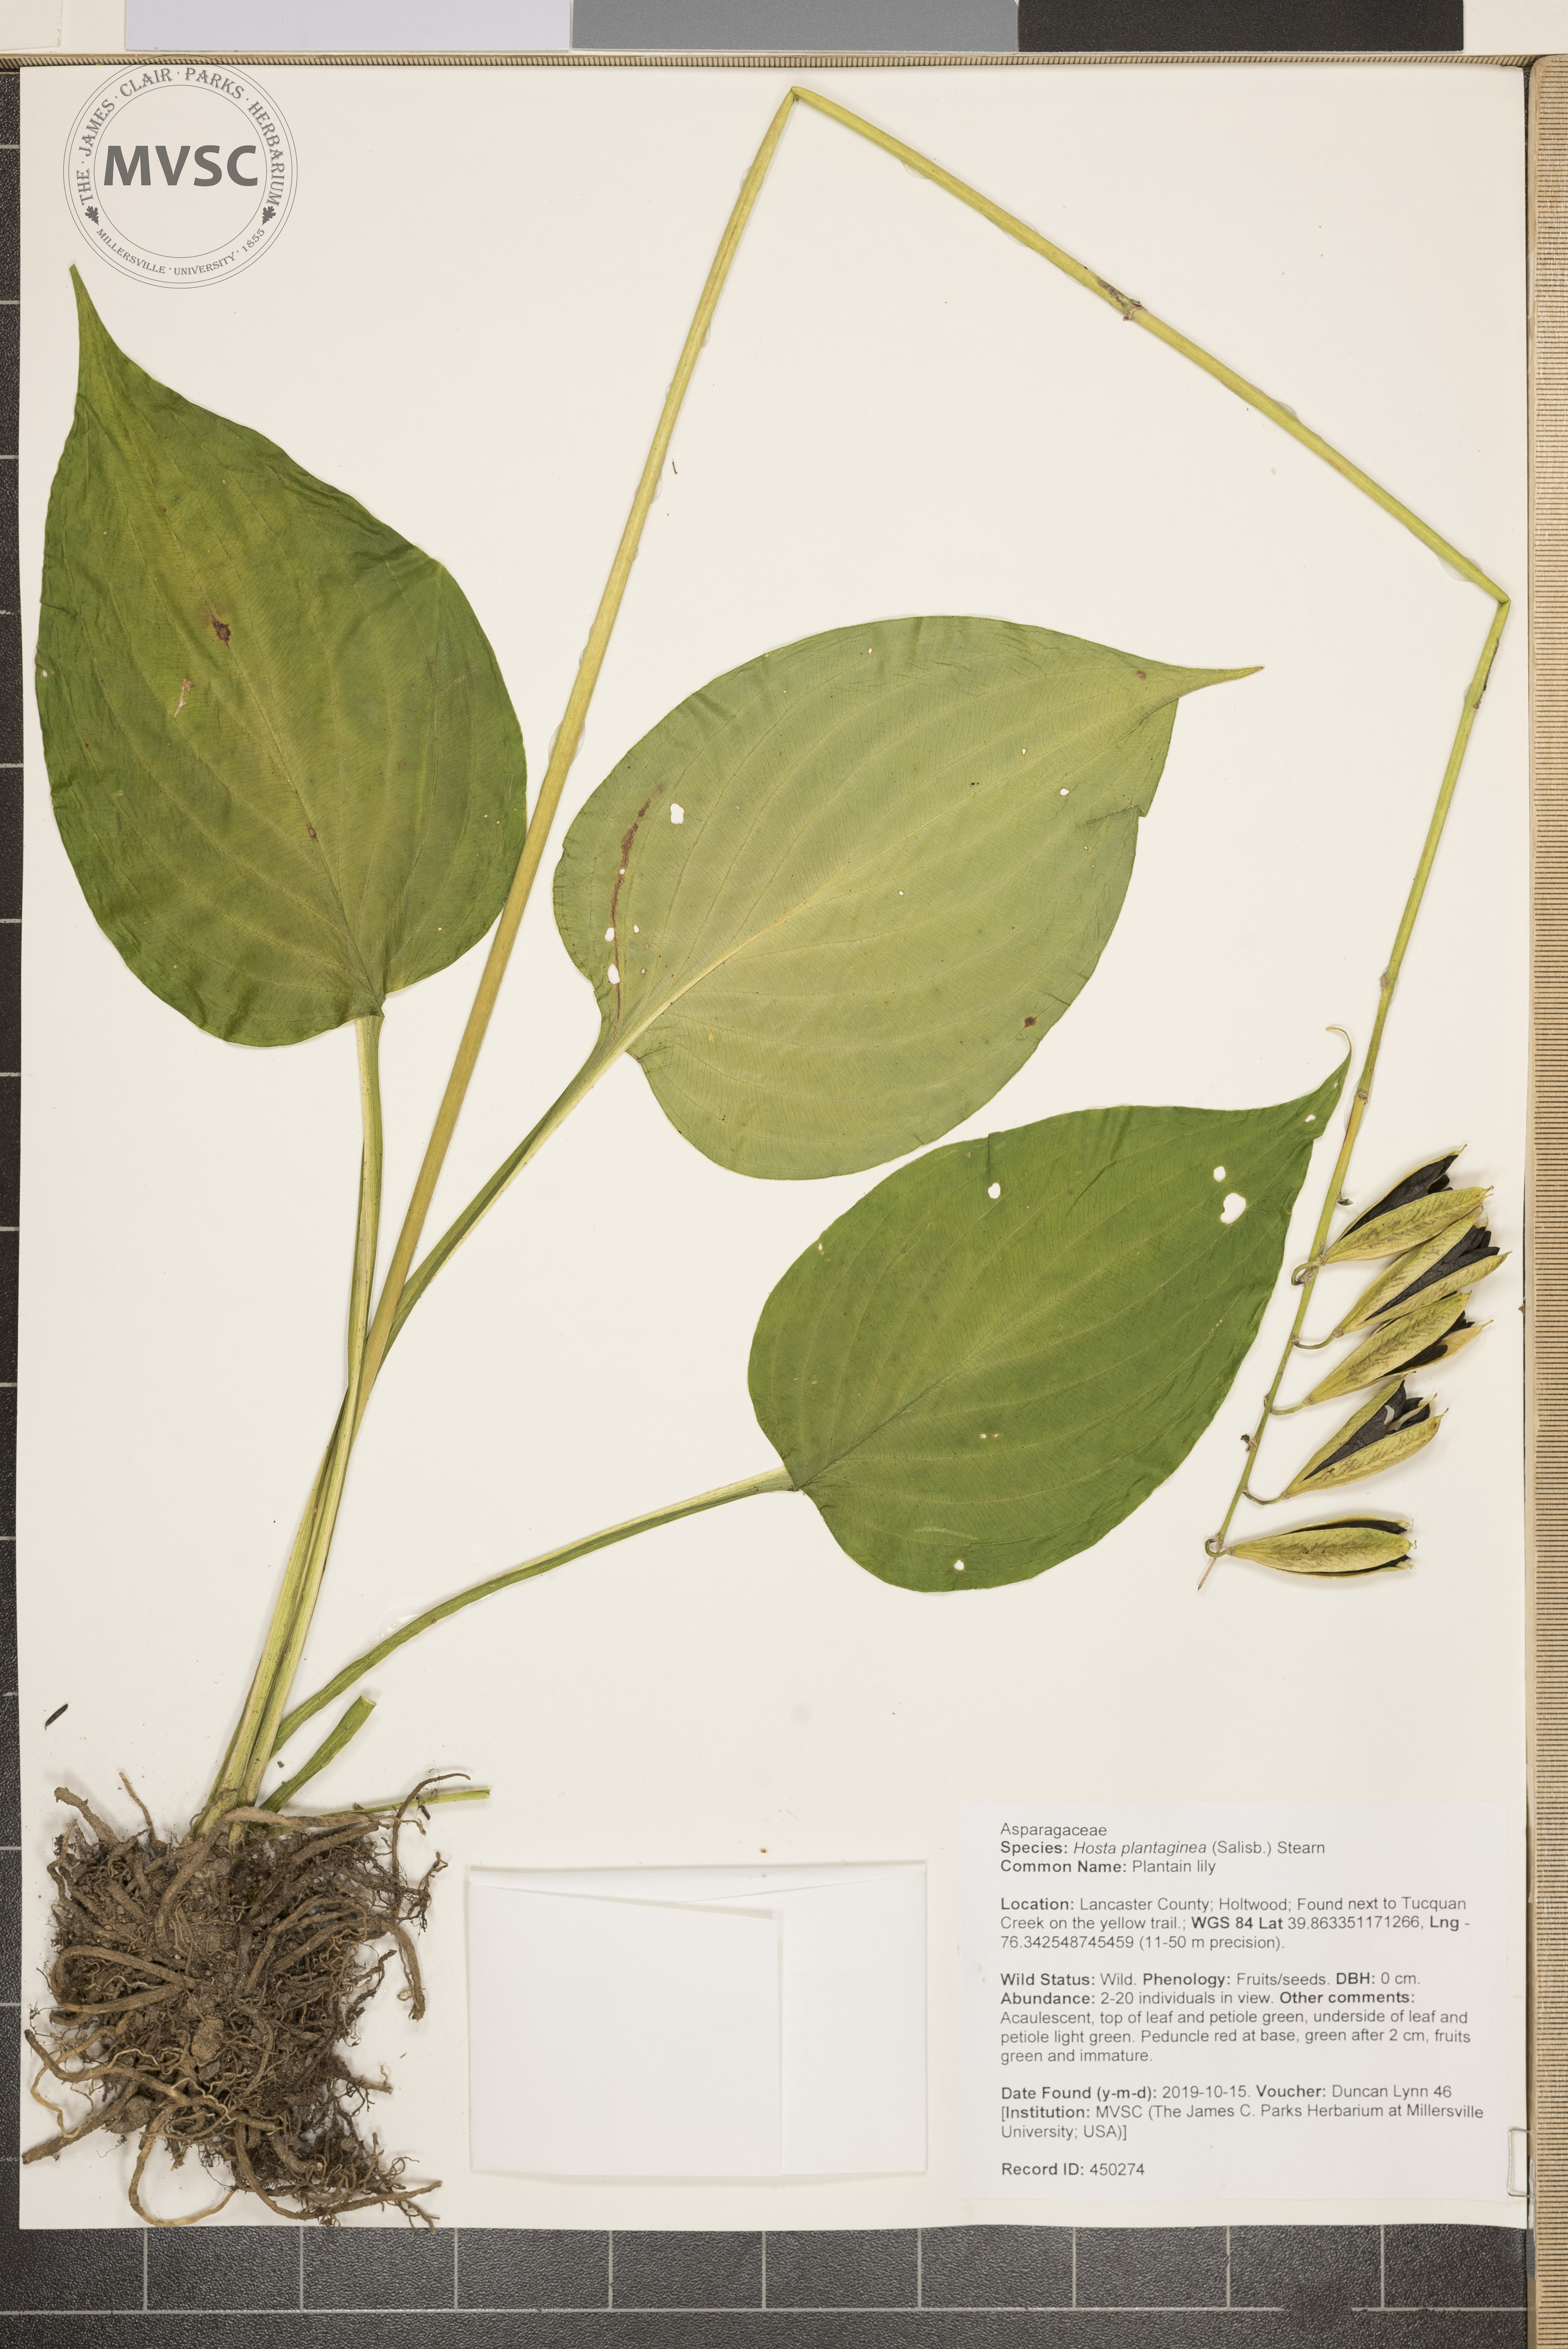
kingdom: Plantae
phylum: Tracheophyta
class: Liliopsida
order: Asparagales
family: Asparagaceae
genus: Hosta
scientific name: Hosta plantaginea
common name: Plantain lily
